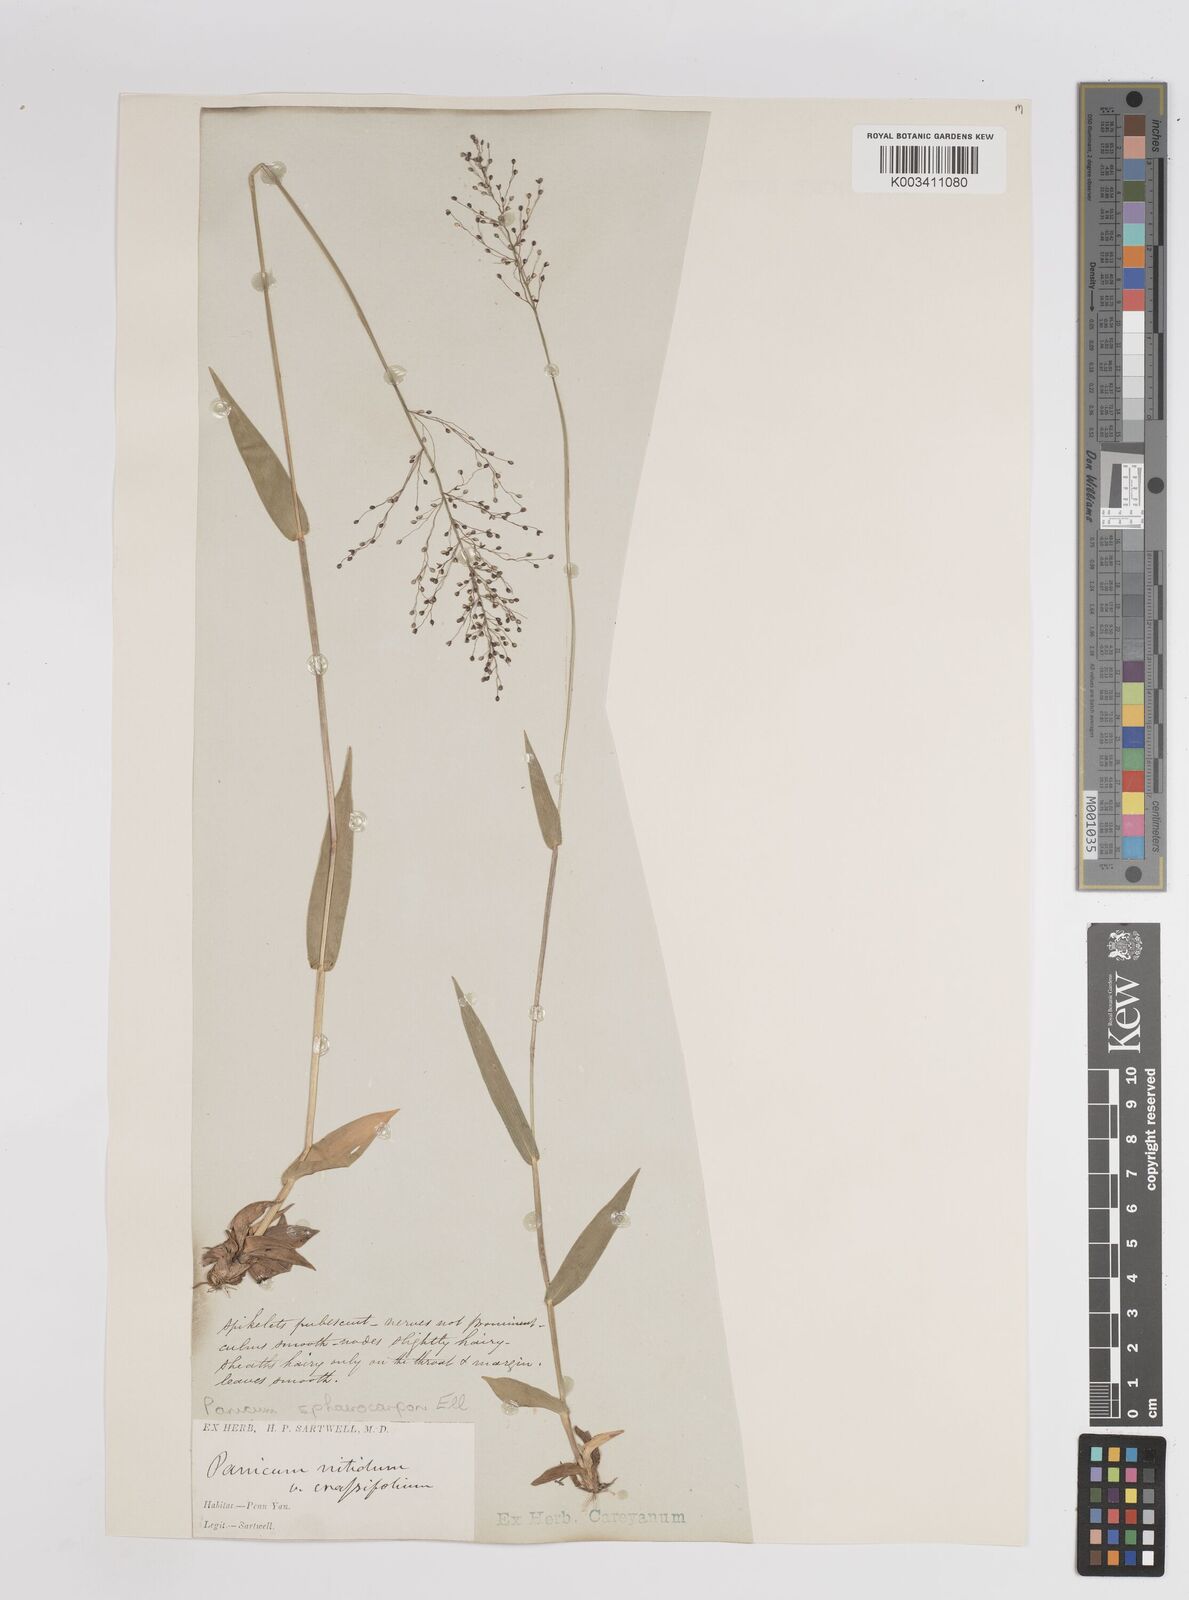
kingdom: Plantae
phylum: Tracheophyta
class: Liliopsida
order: Poales
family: Poaceae
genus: Dichanthelium
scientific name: Dichanthelium sphaerocarpon
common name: Round-fruited panicgrass
